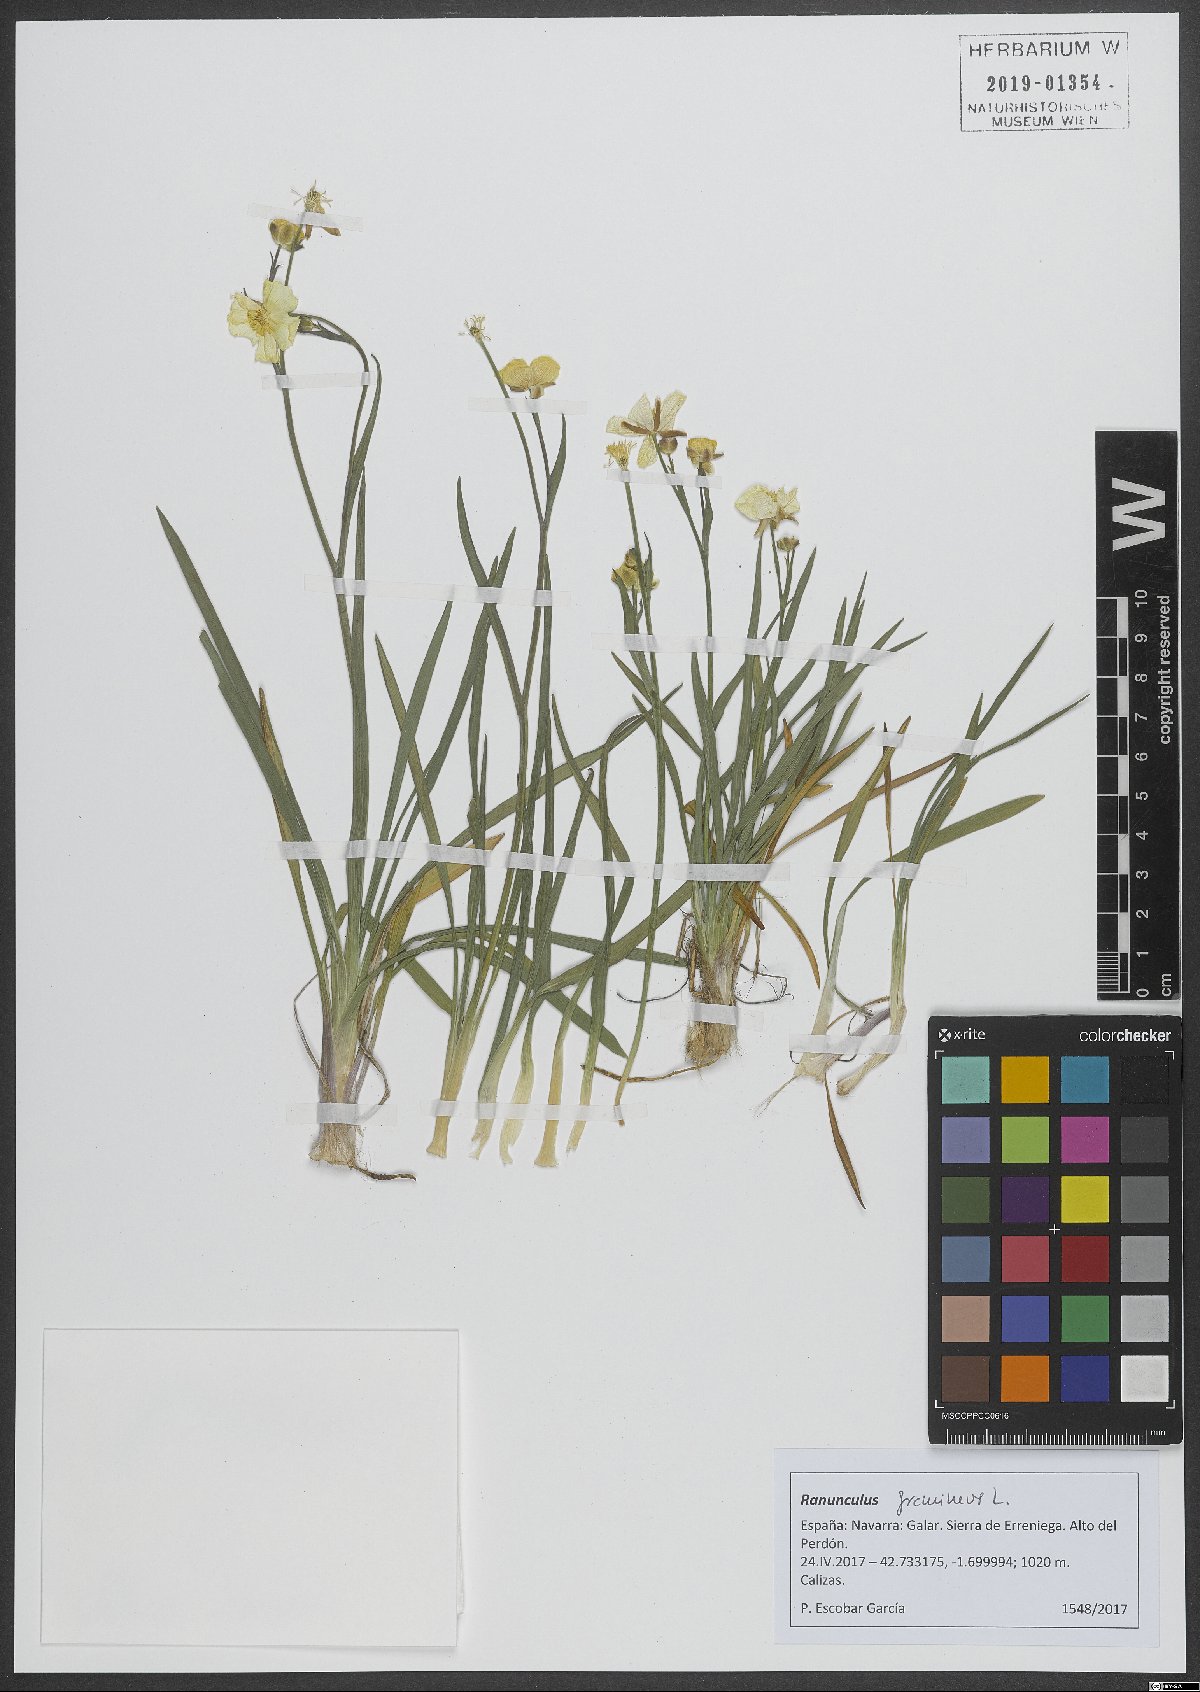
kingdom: Plantae
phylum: Tracheophyta
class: Magnoliopsida
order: Ranunculales
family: Ranunculaceae
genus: Ranunculus
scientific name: Ranunculus gramineus
